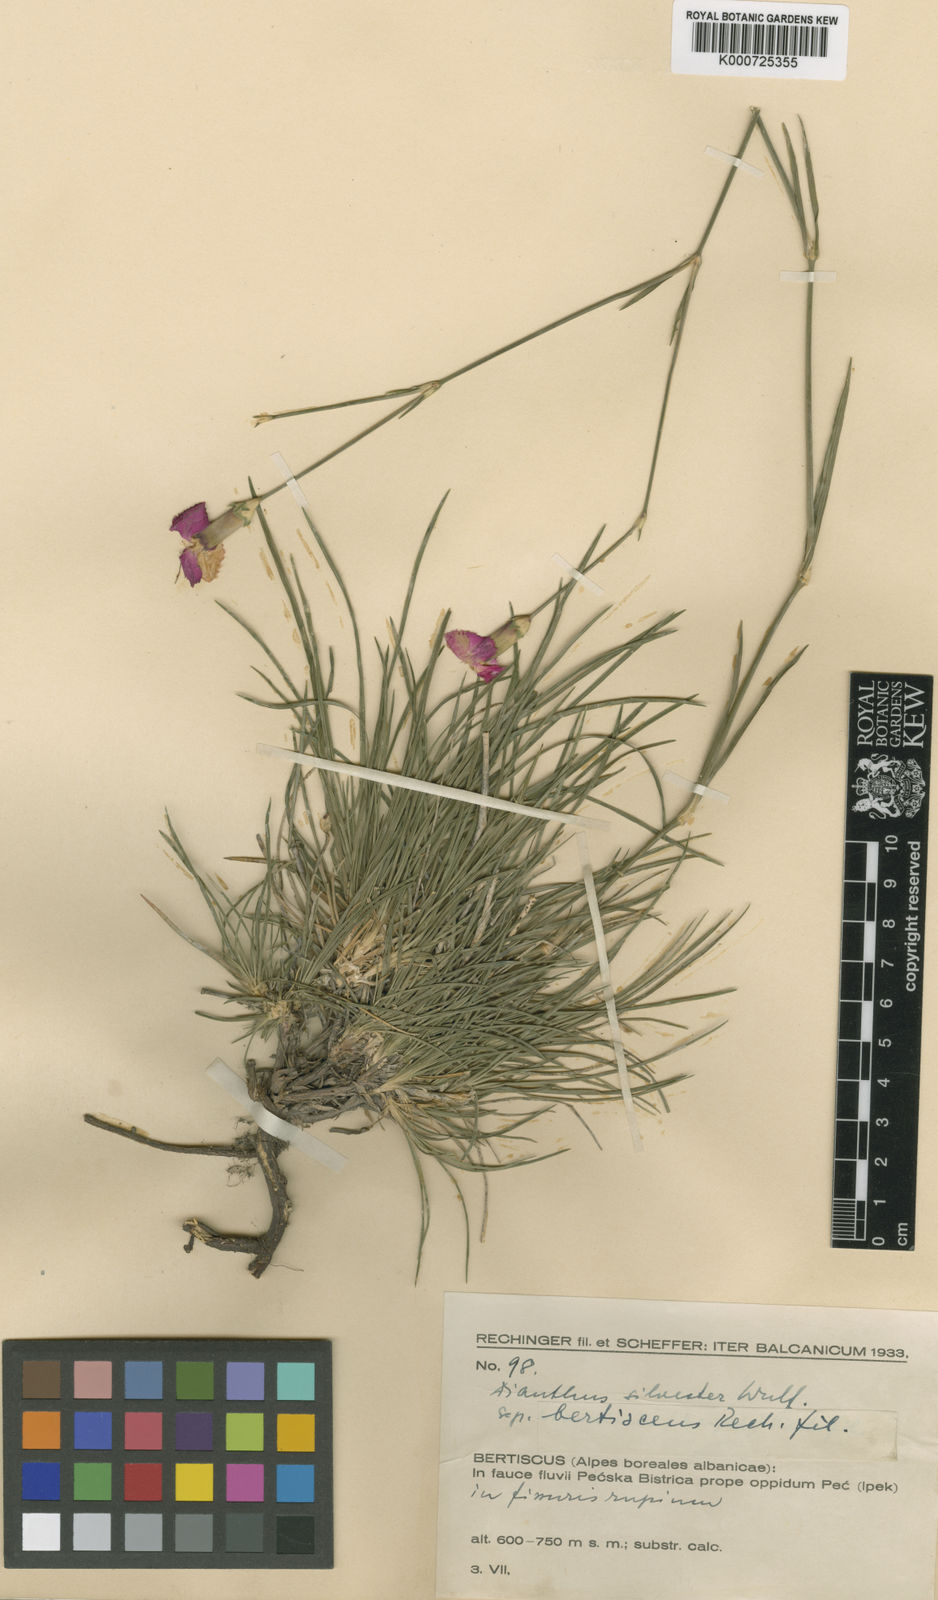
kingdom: Plantae
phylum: Tracheophyta
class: Magnoliopsida
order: Caryophyllales
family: Caryophyllaceae
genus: Dianthus
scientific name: Dianthus sylvestris
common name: Wood pink
